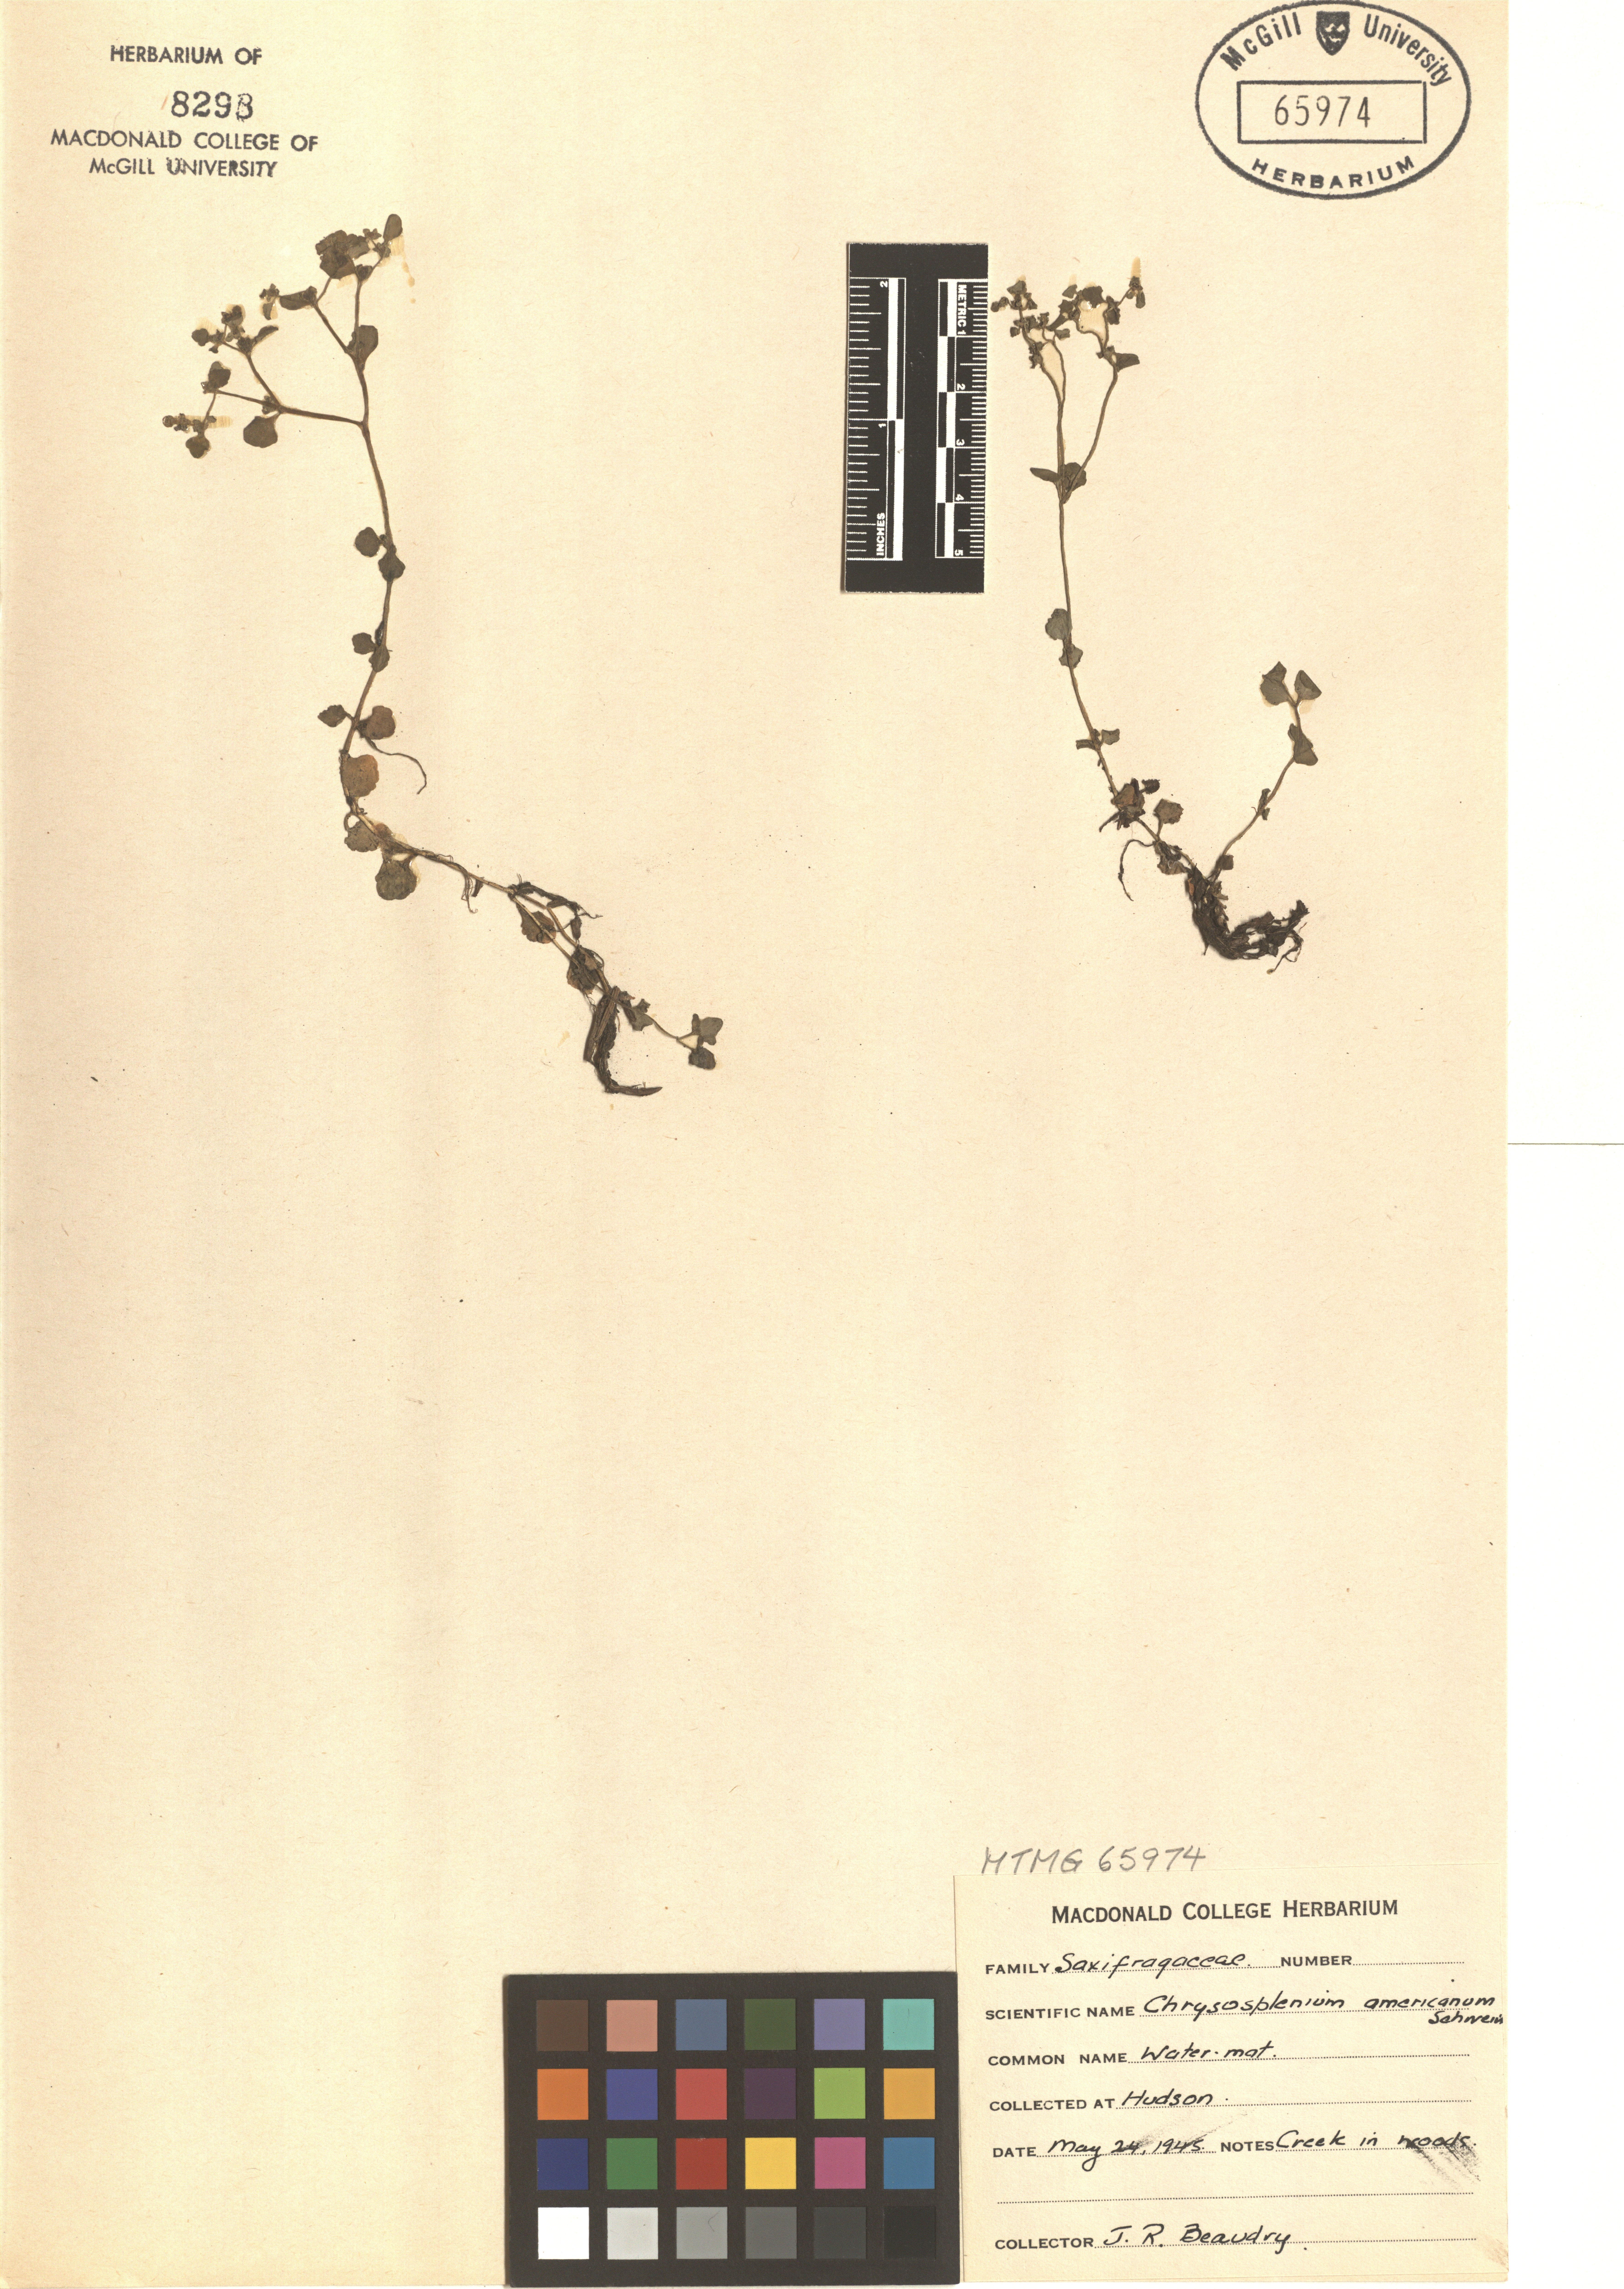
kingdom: Plantae
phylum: Tracheophyta
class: Magnoliopsida
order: Saxifragales
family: Saxifragaceae
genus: Chrysosplenium
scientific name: Chrysosplenium americanum
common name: American golden-saxifrage
